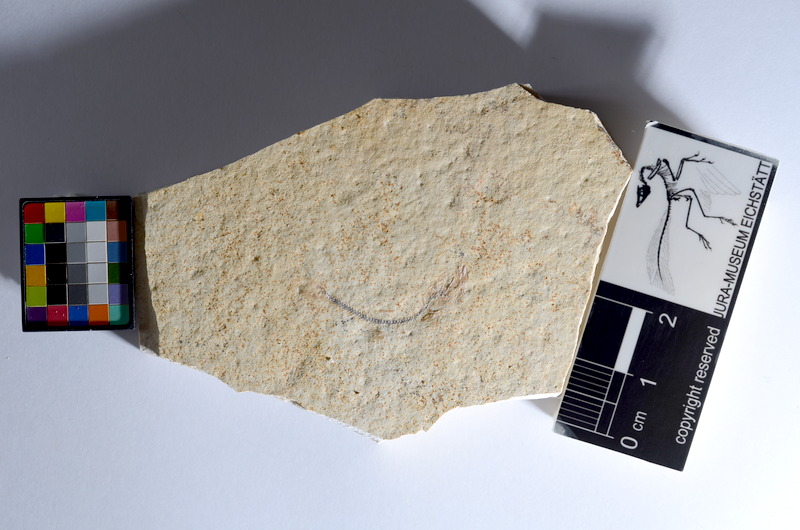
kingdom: Animalia
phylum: Chordata
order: Salmoniformes
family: Orthogonikleithridae
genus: Orthogonikleithrus
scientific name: Orthogonikleithrus hoelli
